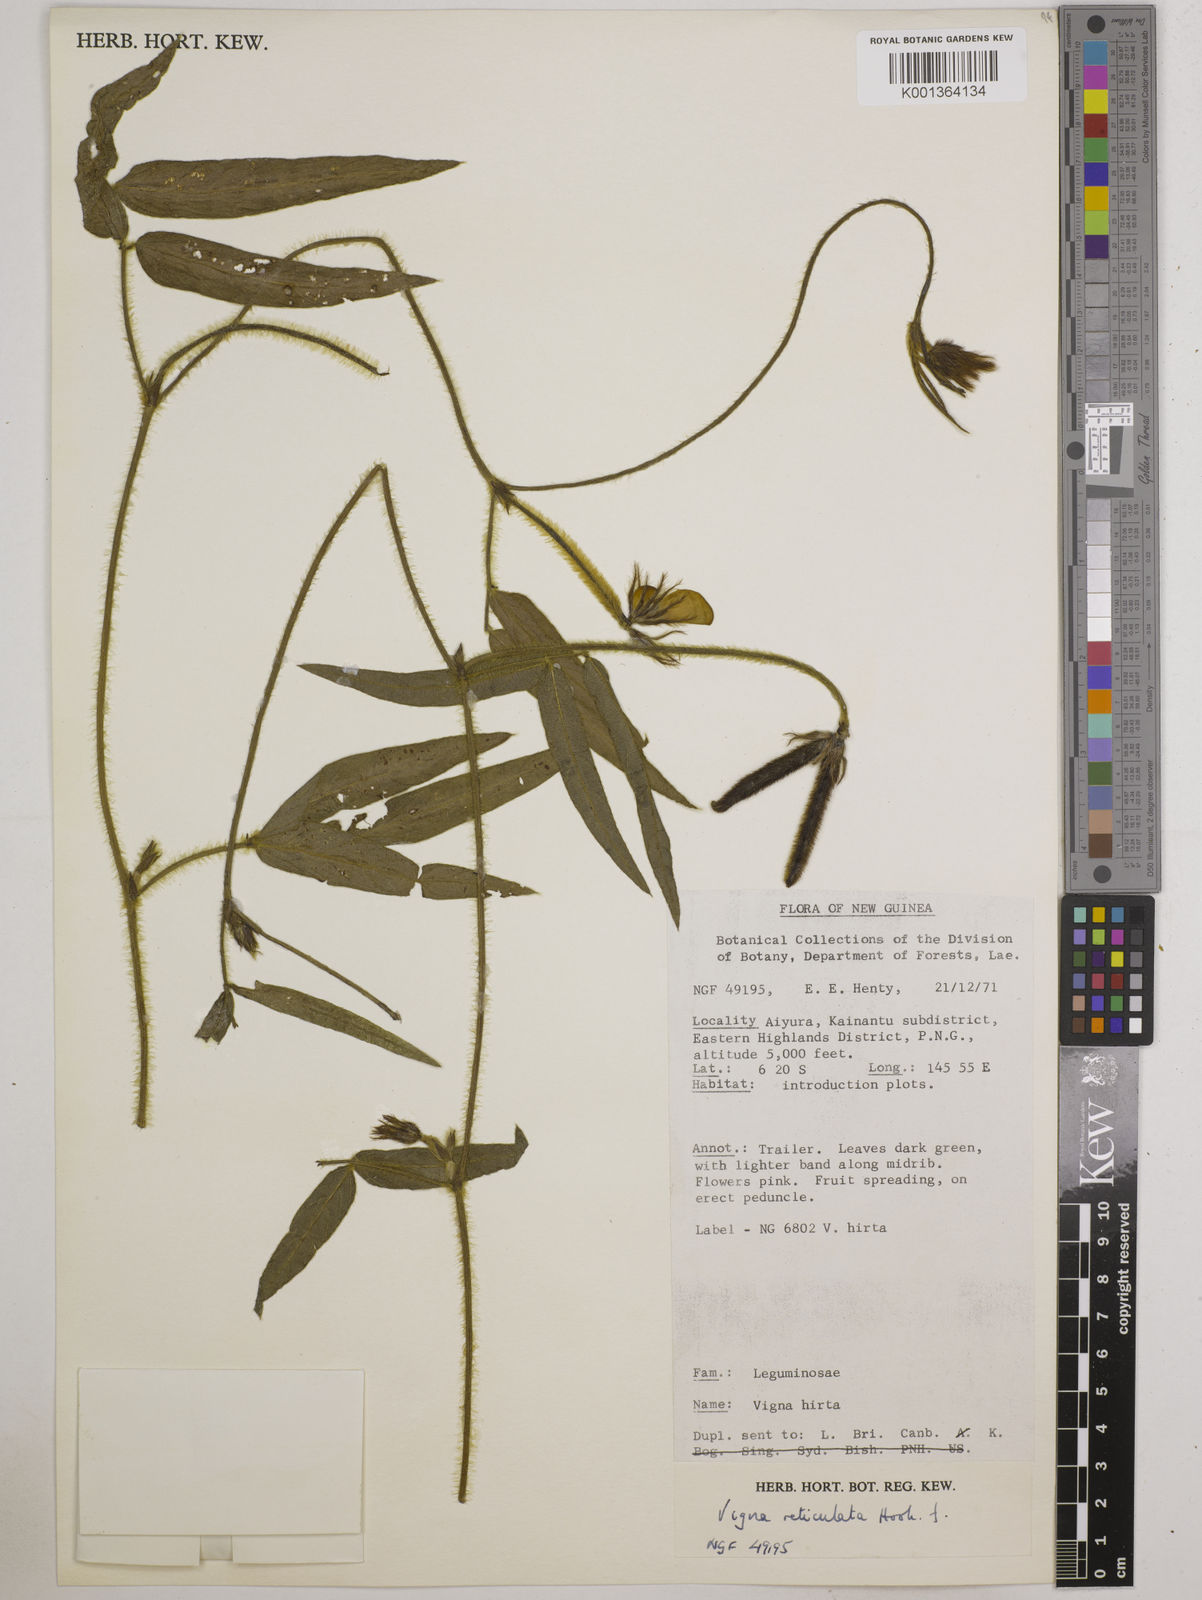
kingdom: Plantae
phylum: Tracheophyta
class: Magnoliopsida
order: Fabales
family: Fabaceae
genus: Vigna
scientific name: Vigna reticulata
